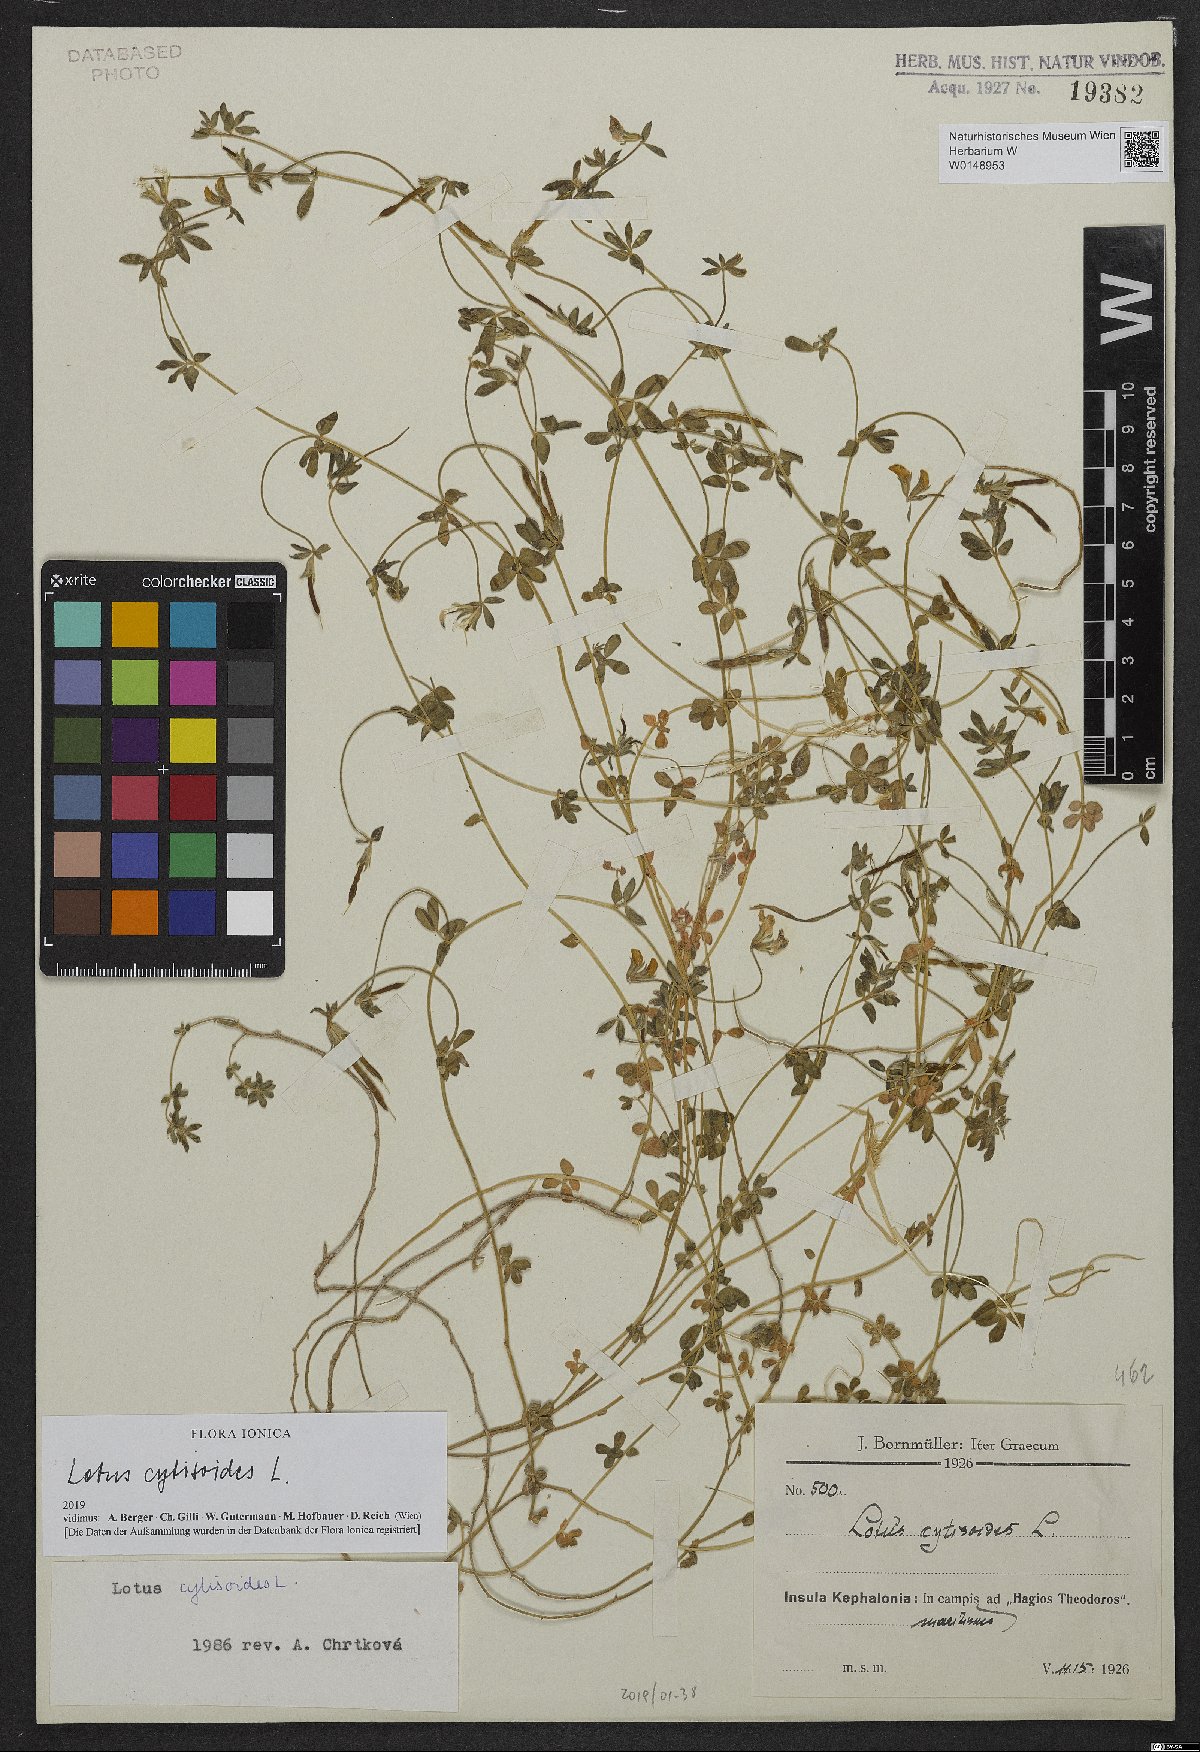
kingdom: Plantae
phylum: Tracheophyta
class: Magnoliopsida
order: Fabales
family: Fabaceae
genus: Lotus
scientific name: Lotus cytisoides
